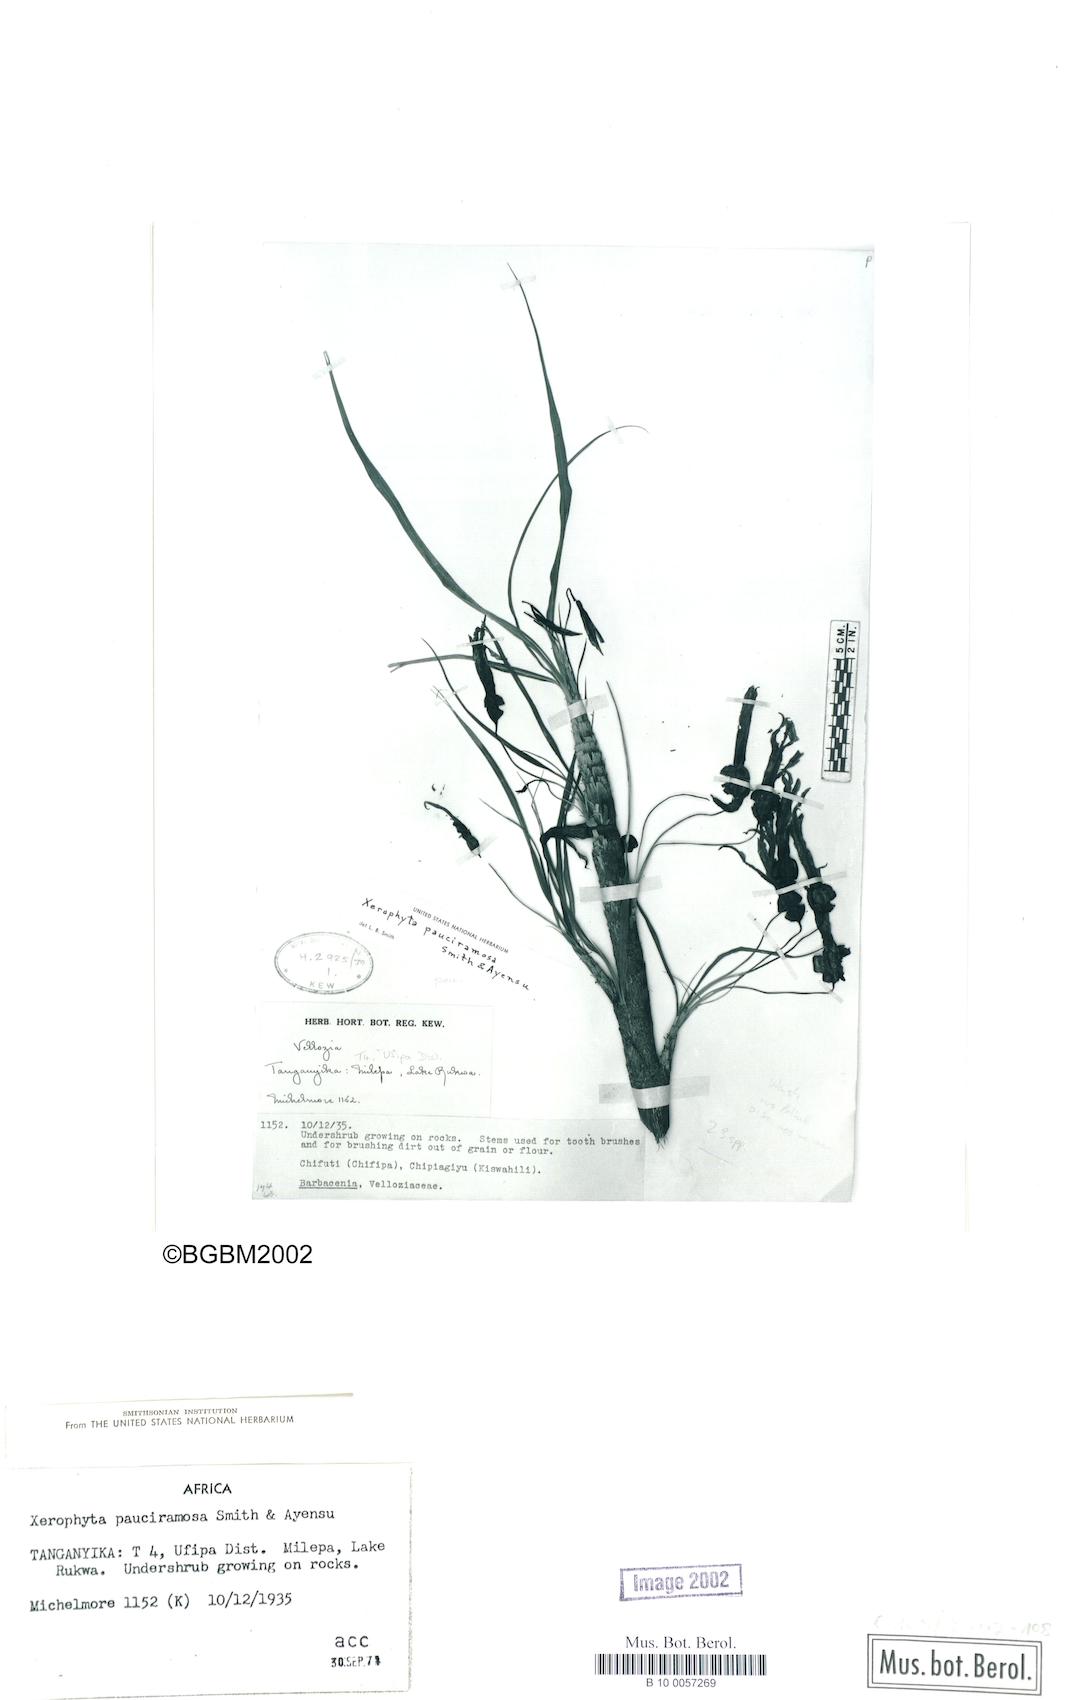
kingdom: Plantae
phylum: Tracheophyta
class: Liliopsida
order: Pandanales
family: Velloziaceae
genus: Xerophyta
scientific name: Xerophyta pauciramosa
